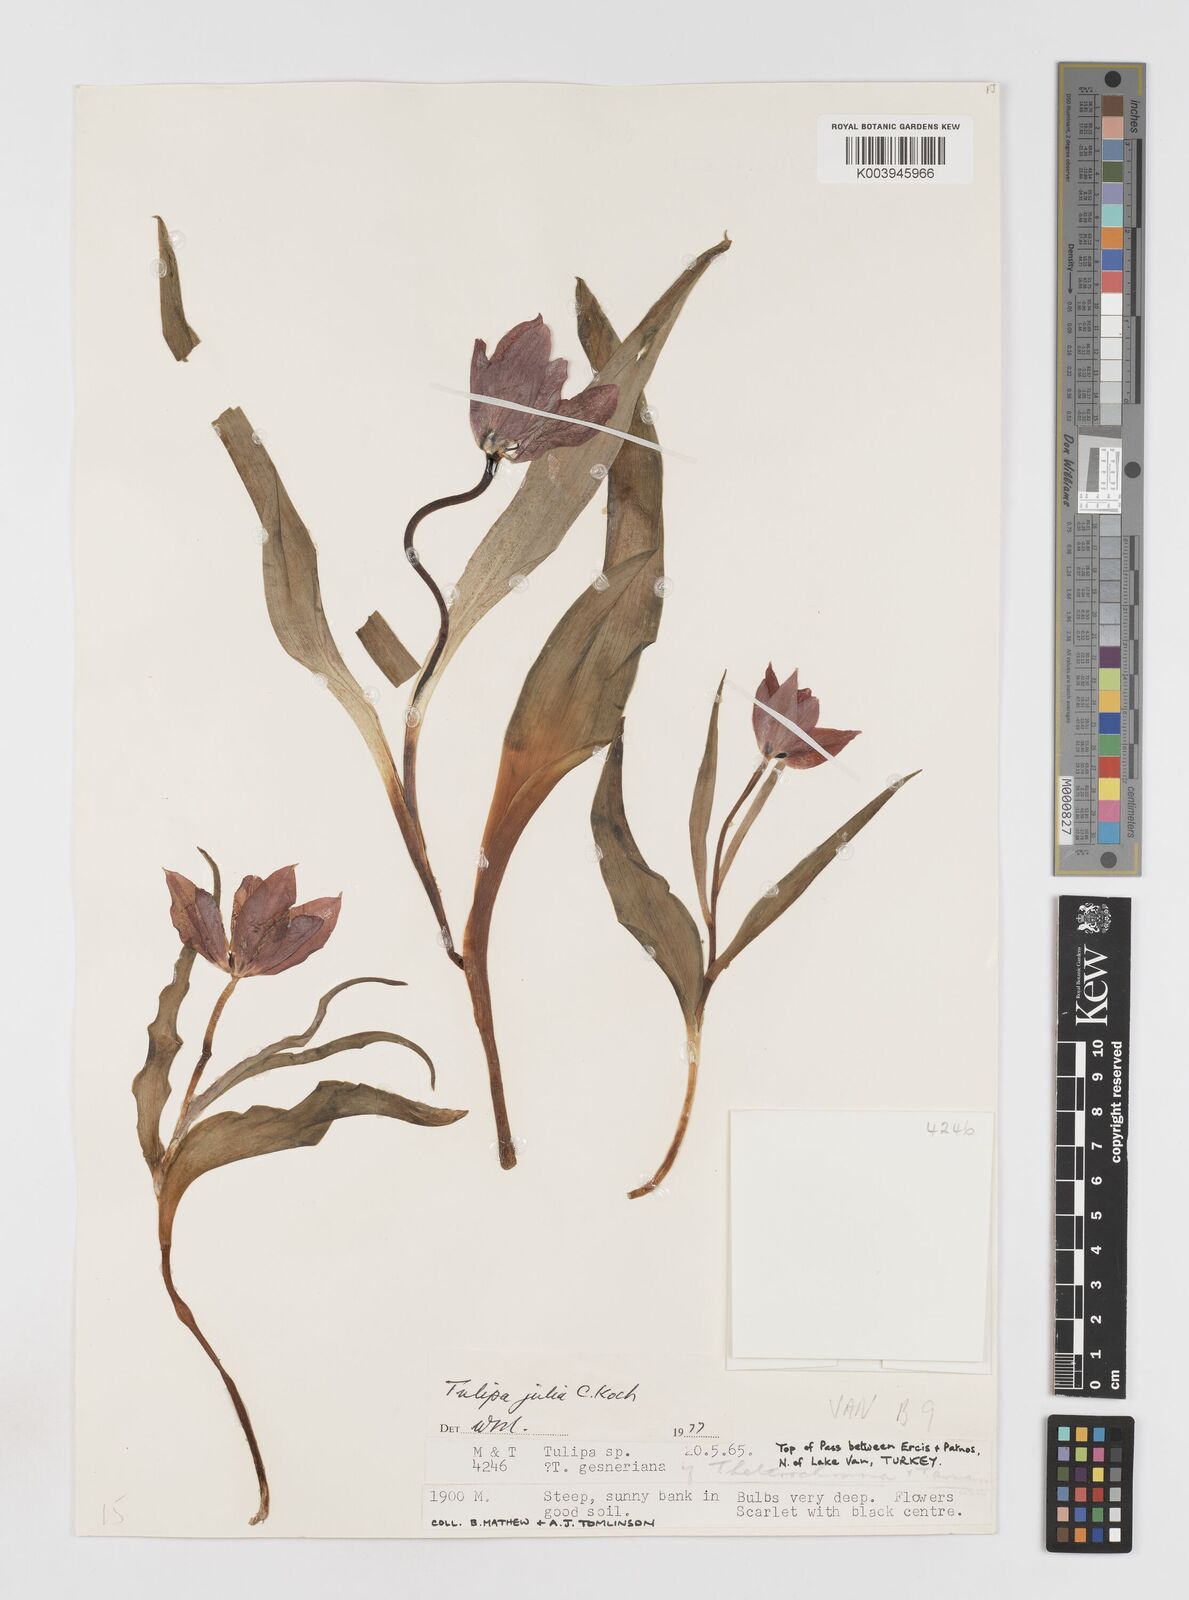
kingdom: Plantae
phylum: Tracheophyta
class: Liliopsida
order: Liliales
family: Liliaceae
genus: Tulipa
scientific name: Tulipa julia
